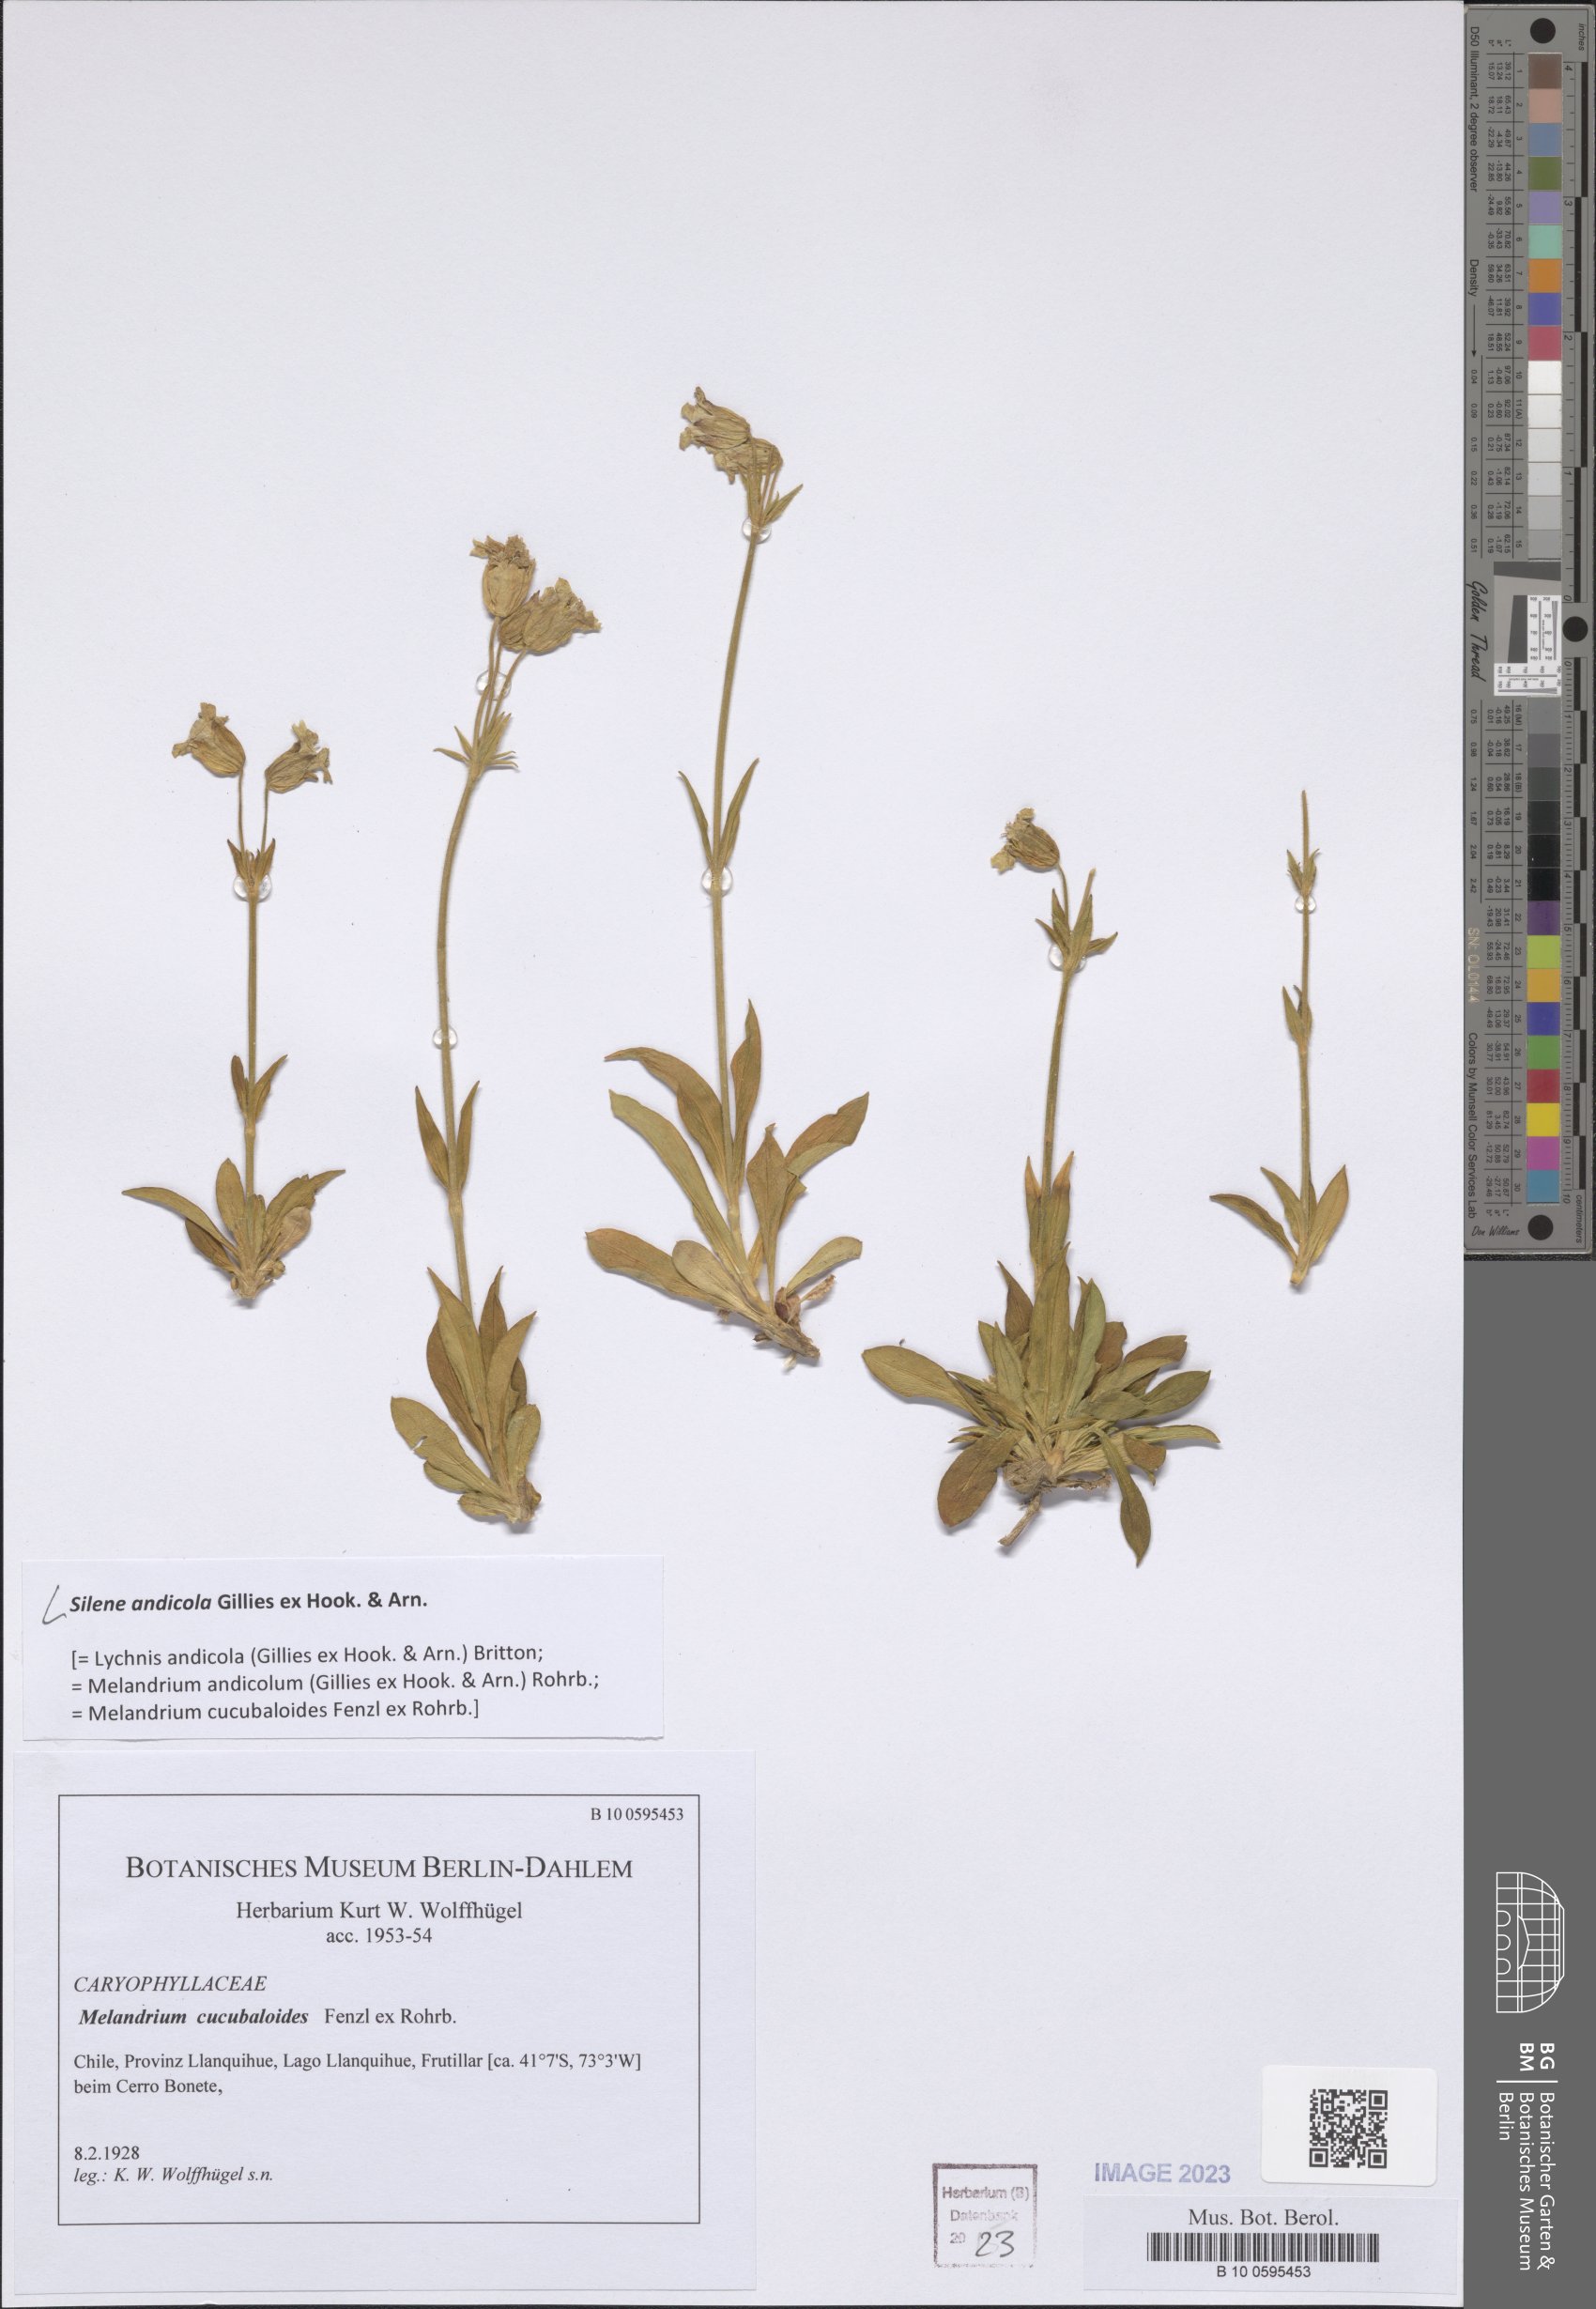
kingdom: Plantae
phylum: Tracheophyta
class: Magnoliopsida
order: Caryophyllales
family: Caryophyllaceae
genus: Silene
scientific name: Silene andicola
